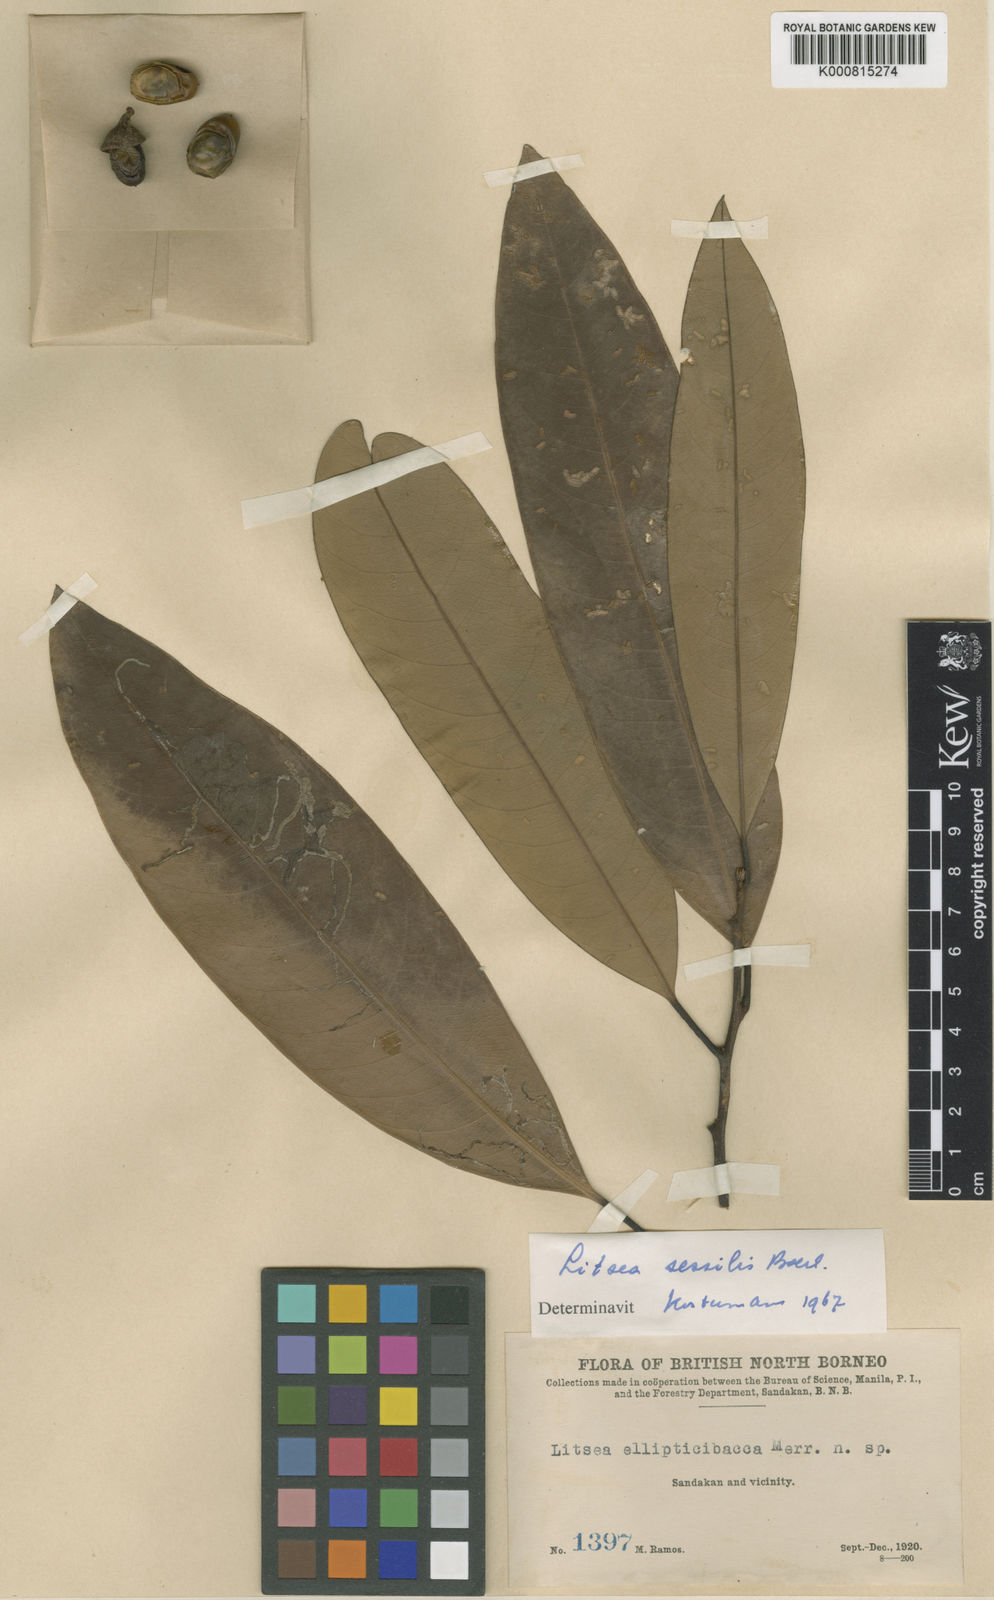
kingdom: Plantae
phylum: Tracheophyta
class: Magnoliopsida
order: Laurales
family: Lauraceae
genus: Litsea
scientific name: Litsea sessilis
